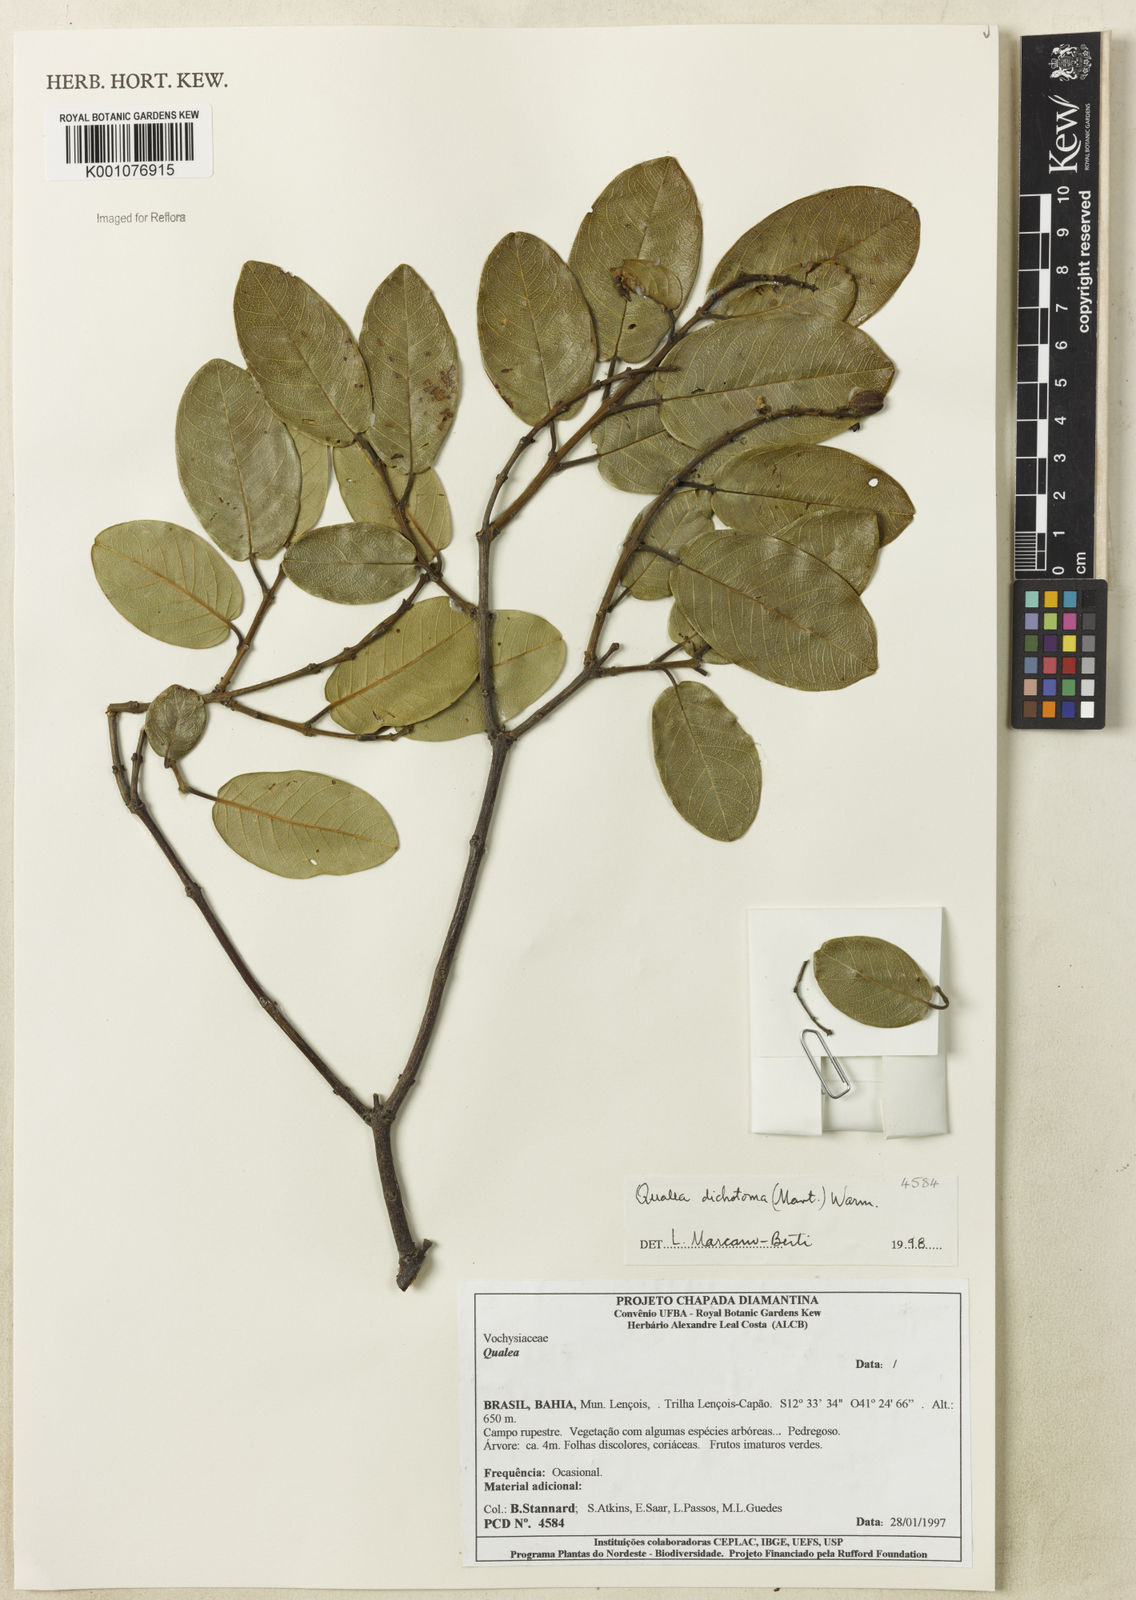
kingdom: Plantae
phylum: Tracheophyta
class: Magnoliopsida
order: Myrtales
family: Vochysiaceae
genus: Qualea
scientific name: Qualea
